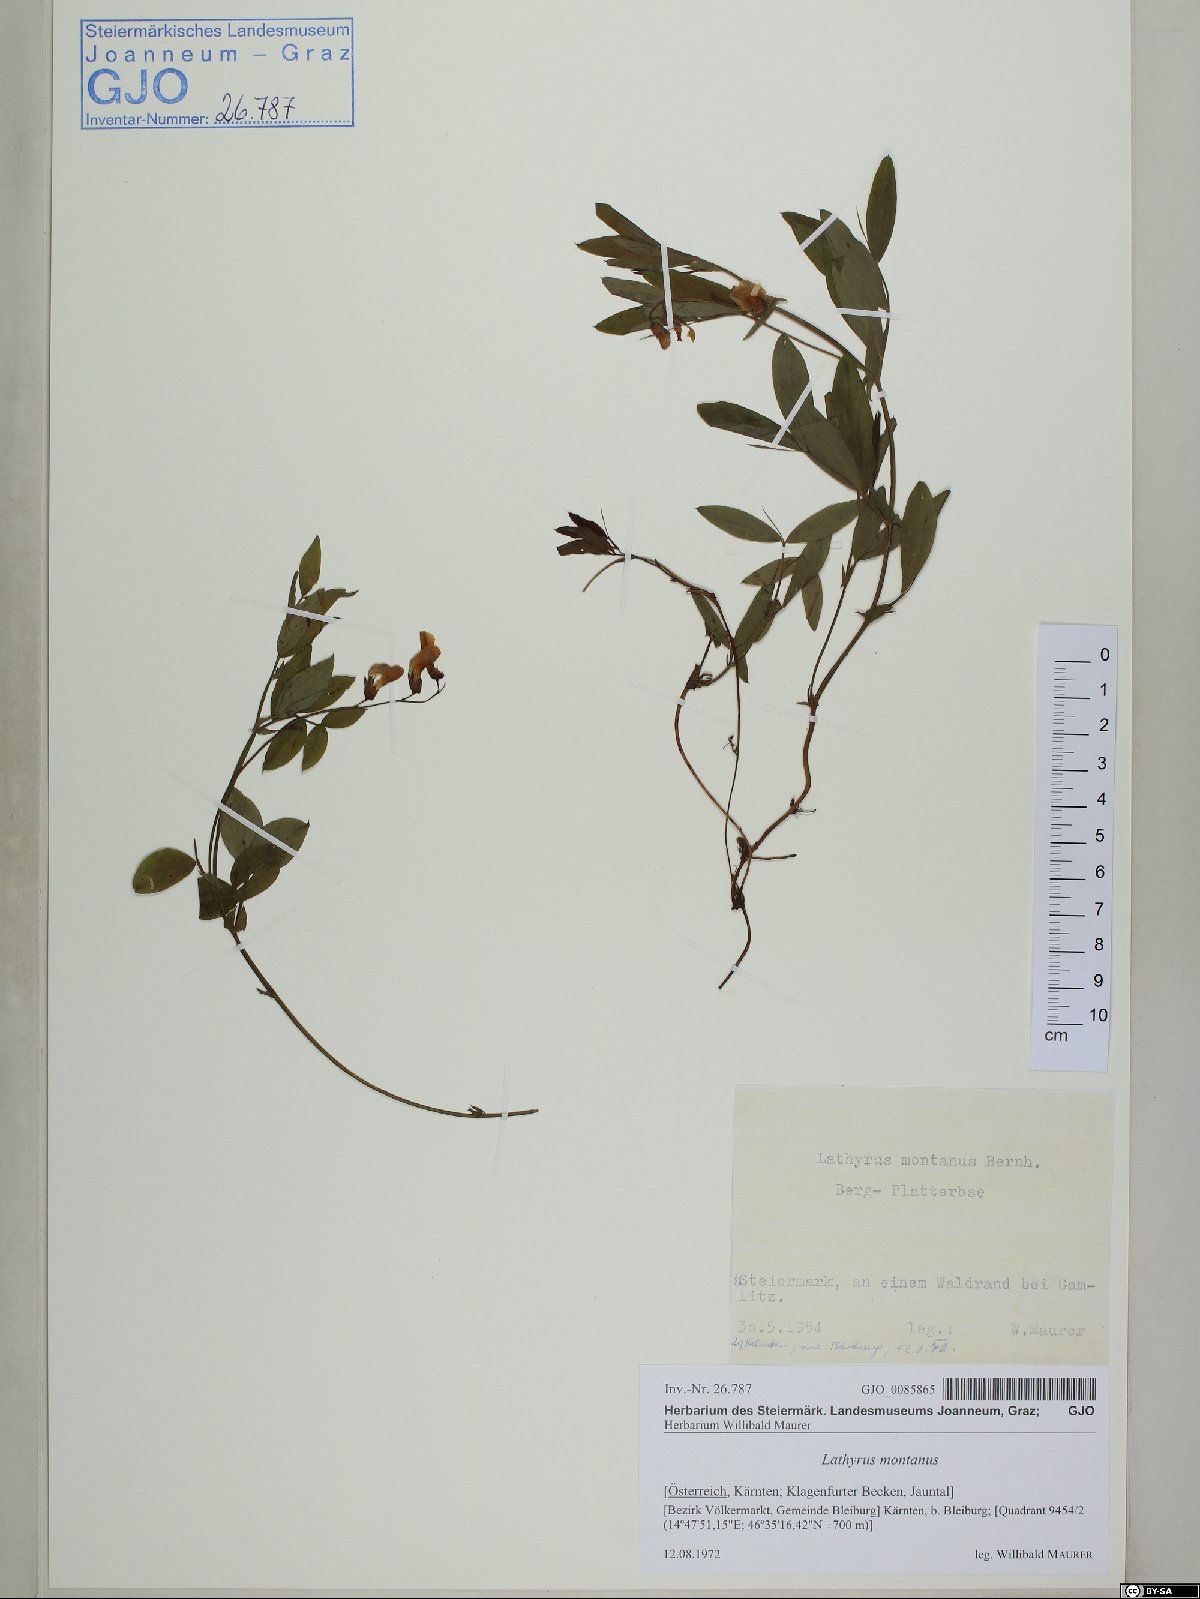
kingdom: Plantae
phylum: Tracheophyta
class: Magnoliopsida
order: Fabales
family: Fabaceae
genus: Lathyrus
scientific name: Lathyrus linifolius
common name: Bitter-vetch
